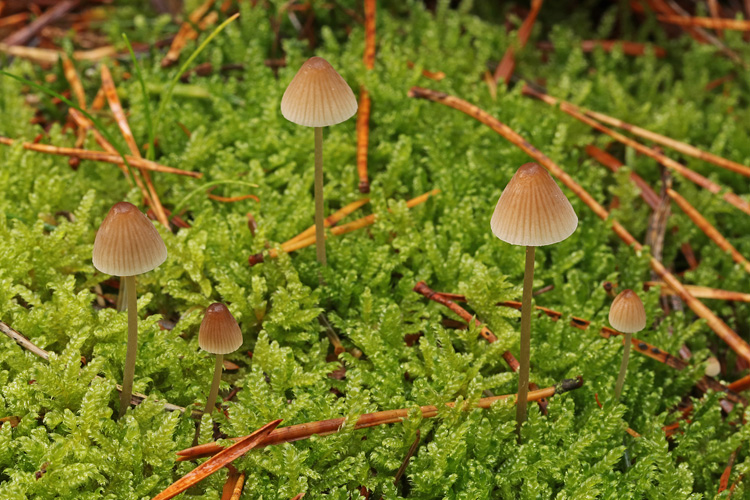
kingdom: Fungi
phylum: Basidiomycota
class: Agaricomycetes
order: Agaricales
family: Mycenaceae
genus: Mycena
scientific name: Mycena metata
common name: rødlig huesvamp
